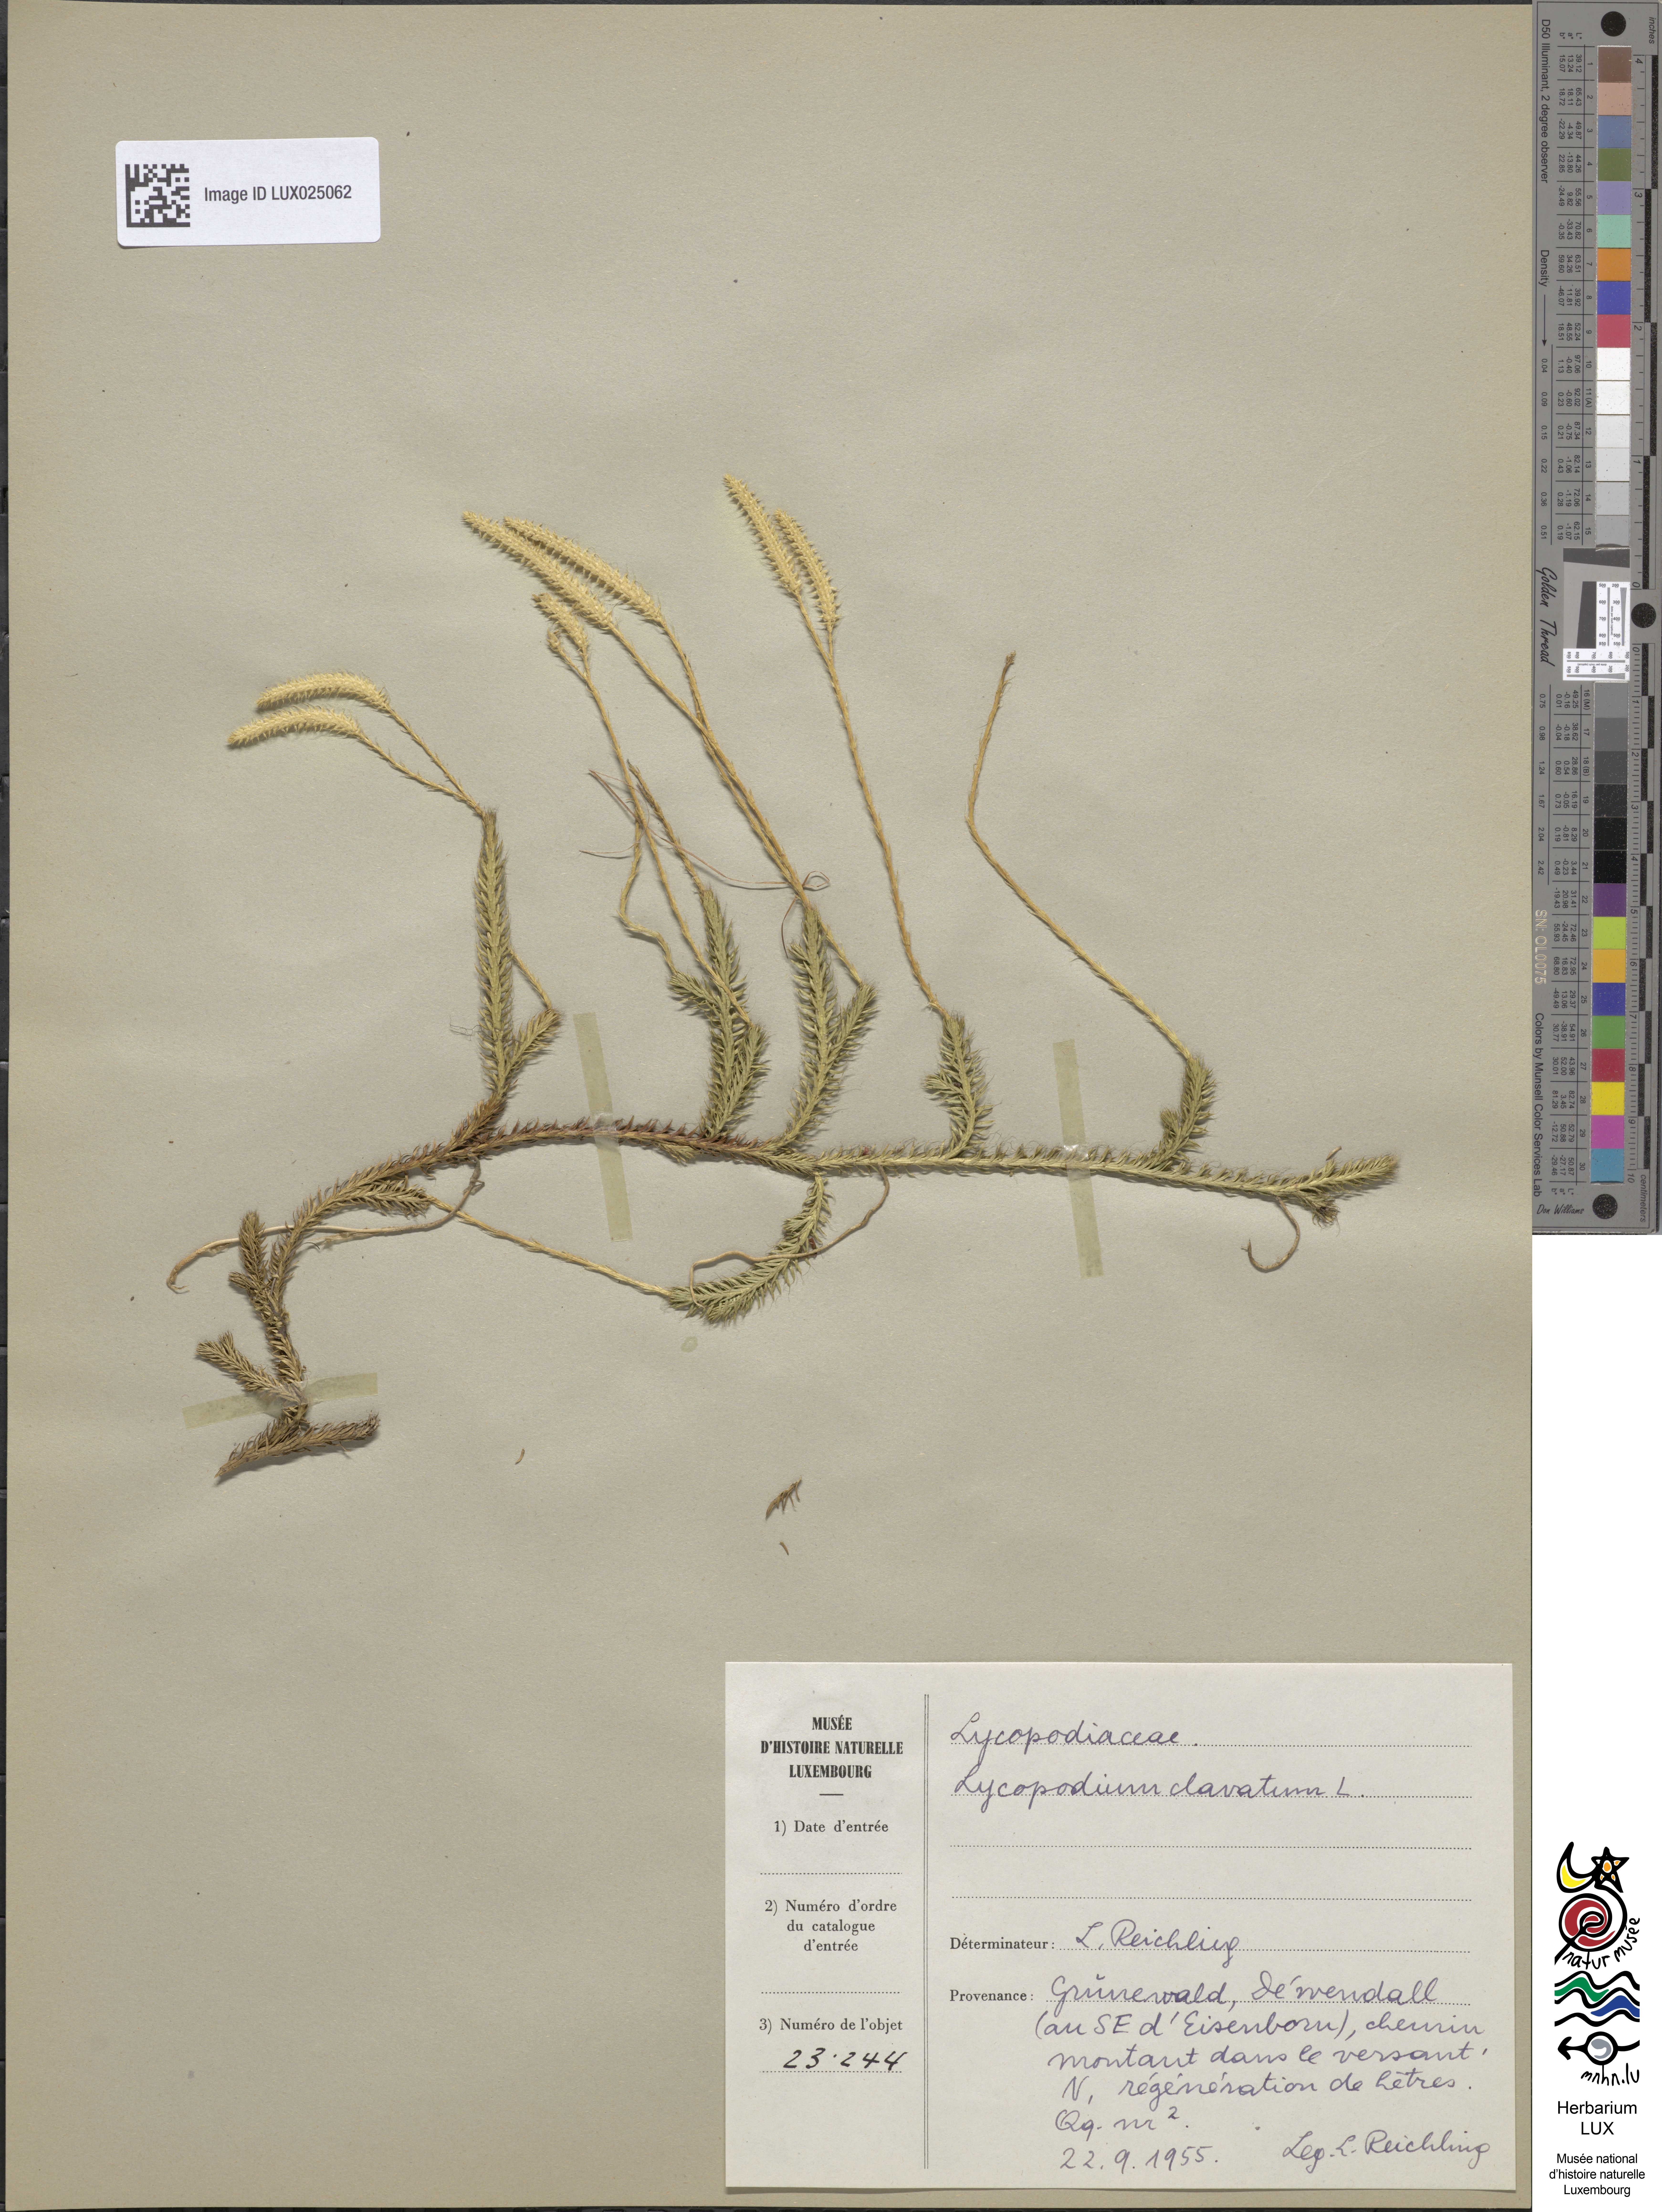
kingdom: Plantae
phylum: Tracheophyta
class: Lycopodiopsida
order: Lycopodiales
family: Lycopodiaceae
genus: Lycopodium
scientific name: Lycopodium clavatum
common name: Stag's-horn clubmoss
